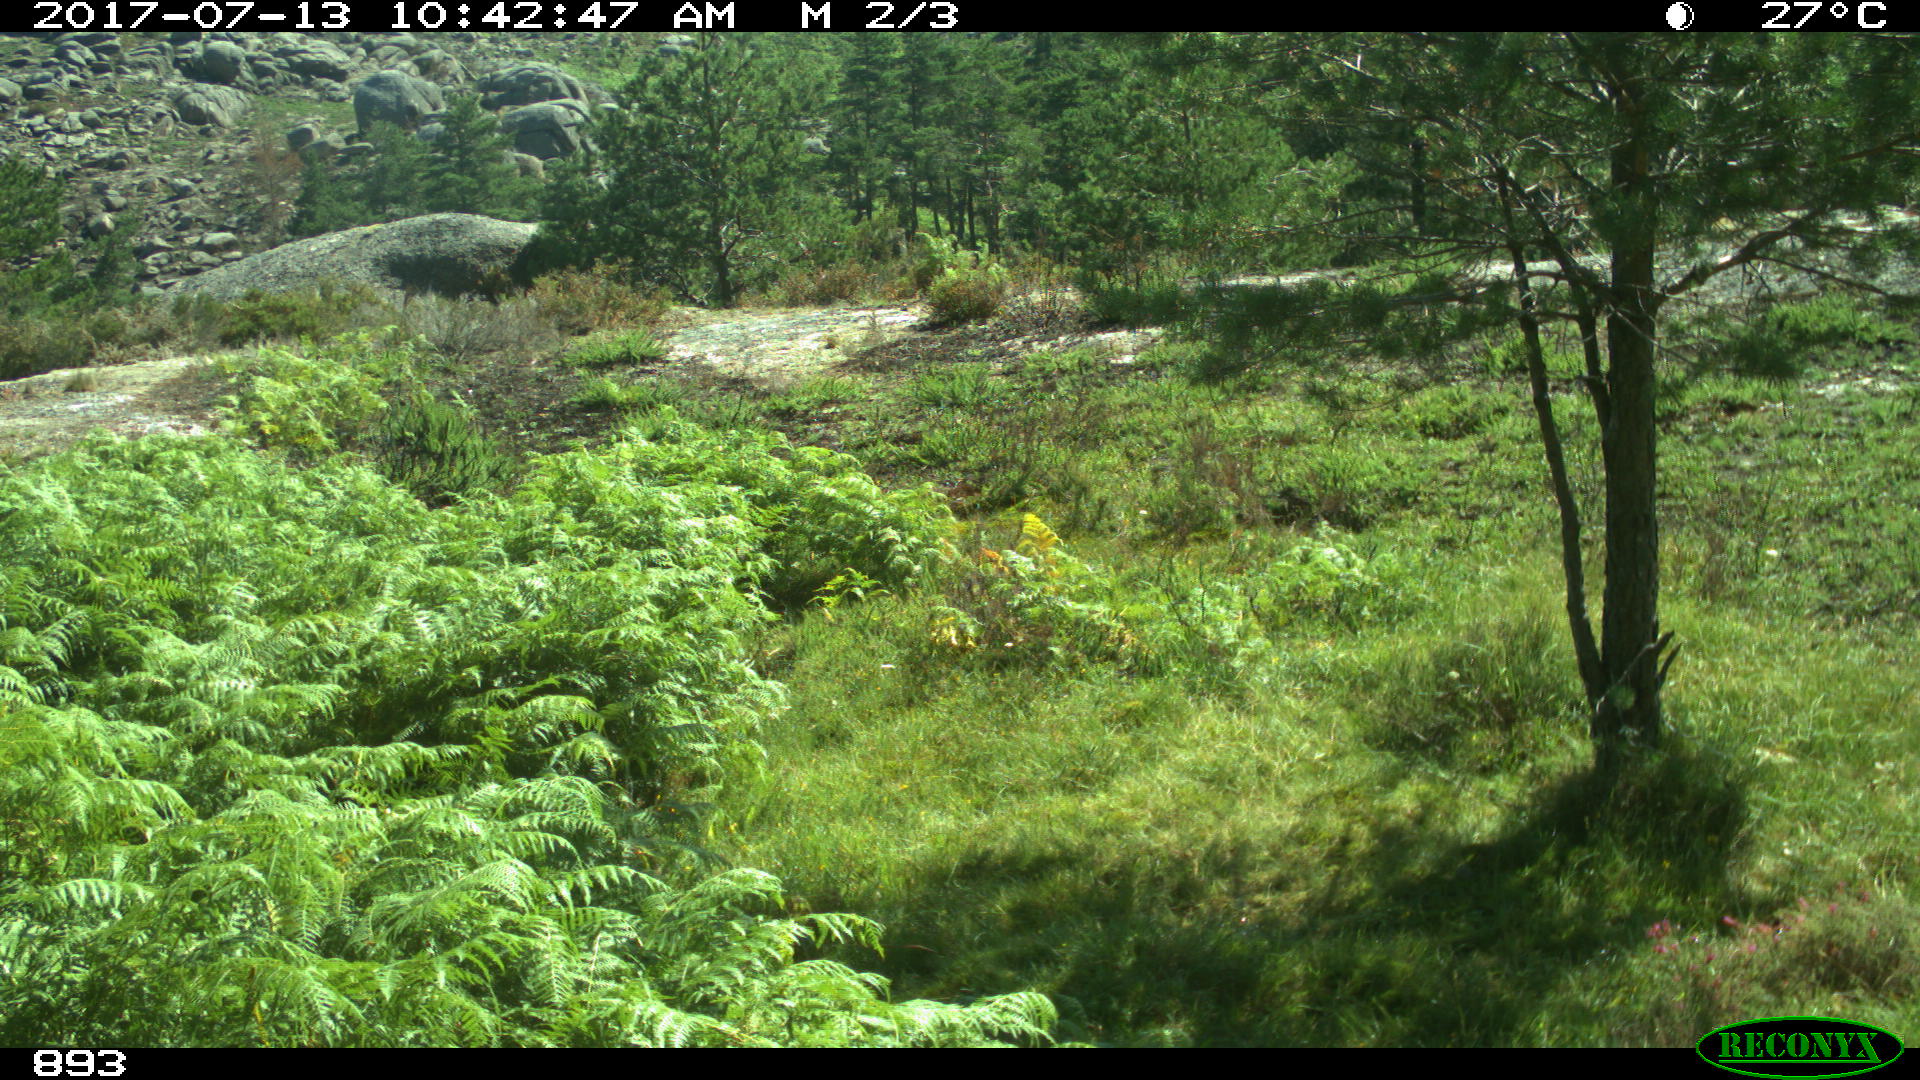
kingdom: Animalia
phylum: Chordata
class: Mammalia
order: Perissodactyla
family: Equidae
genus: Equus
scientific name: Equus caballus
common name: Horse
